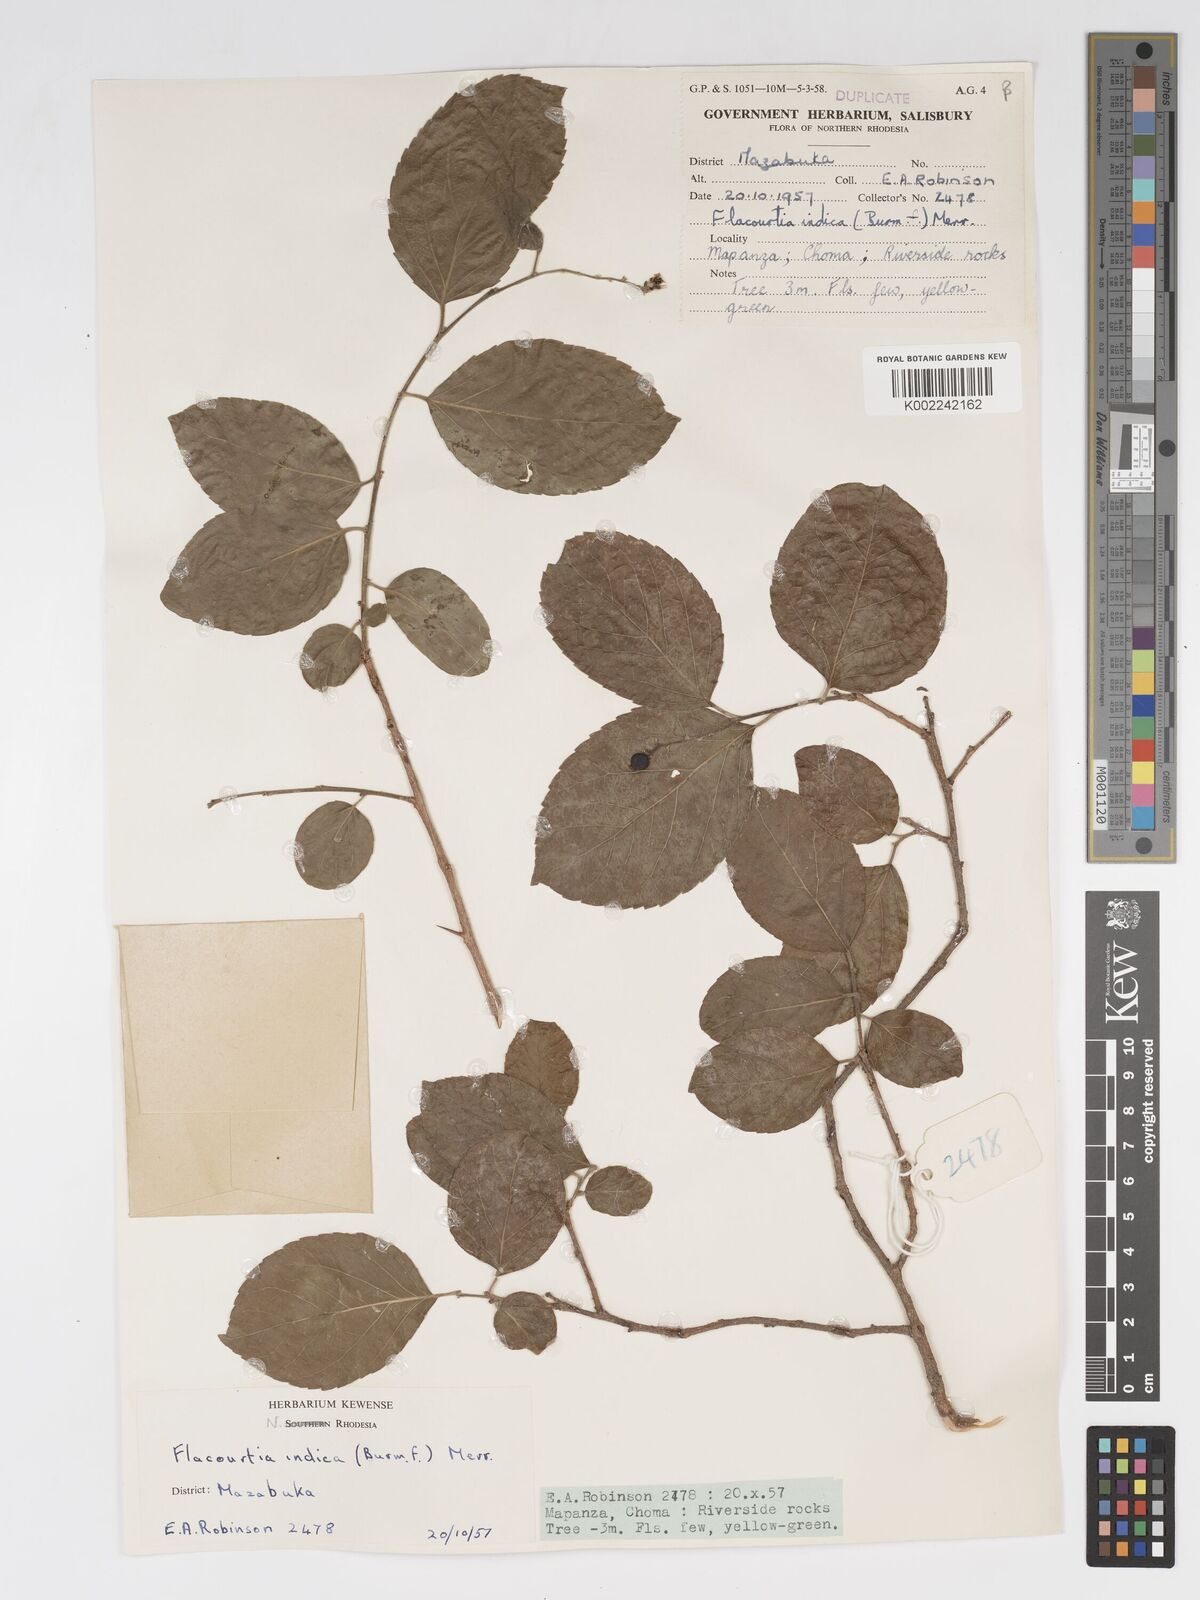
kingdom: Plantae
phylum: Tracheophyta
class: Magnoliopsida
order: Malpighiales
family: Salicaceae
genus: Flacourtia
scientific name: Flacourtia indica
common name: Governor's plum
